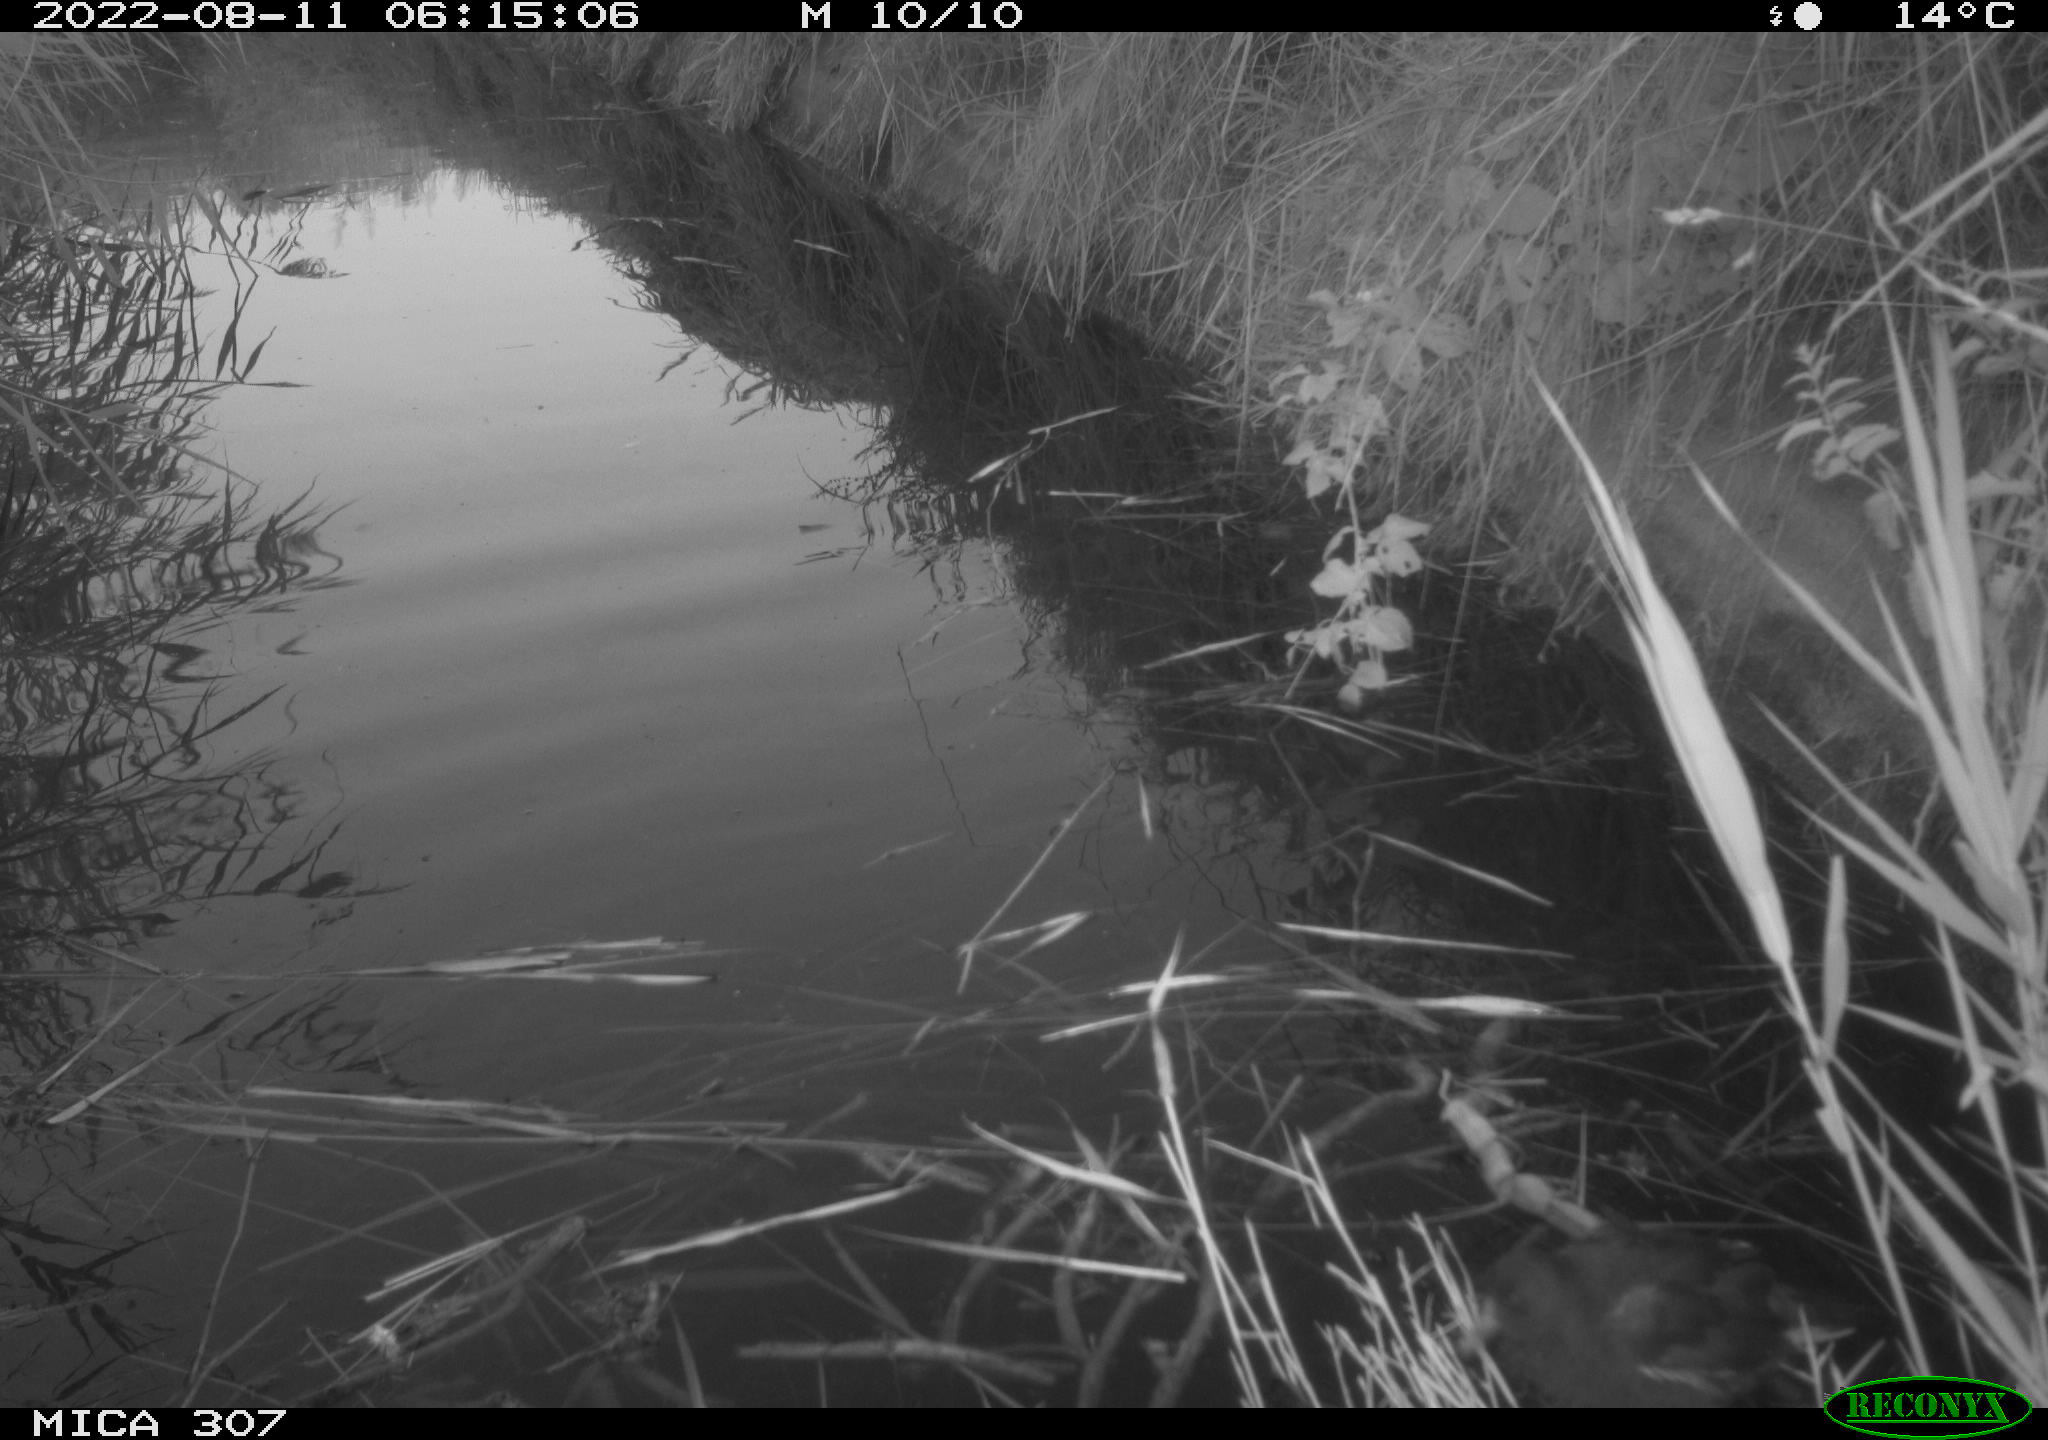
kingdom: Animalia
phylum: Chordata
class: Aves
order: Gruiformes
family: Rallidae
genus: Gallinula
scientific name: Gallinula chloropus
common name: Common moorhen
